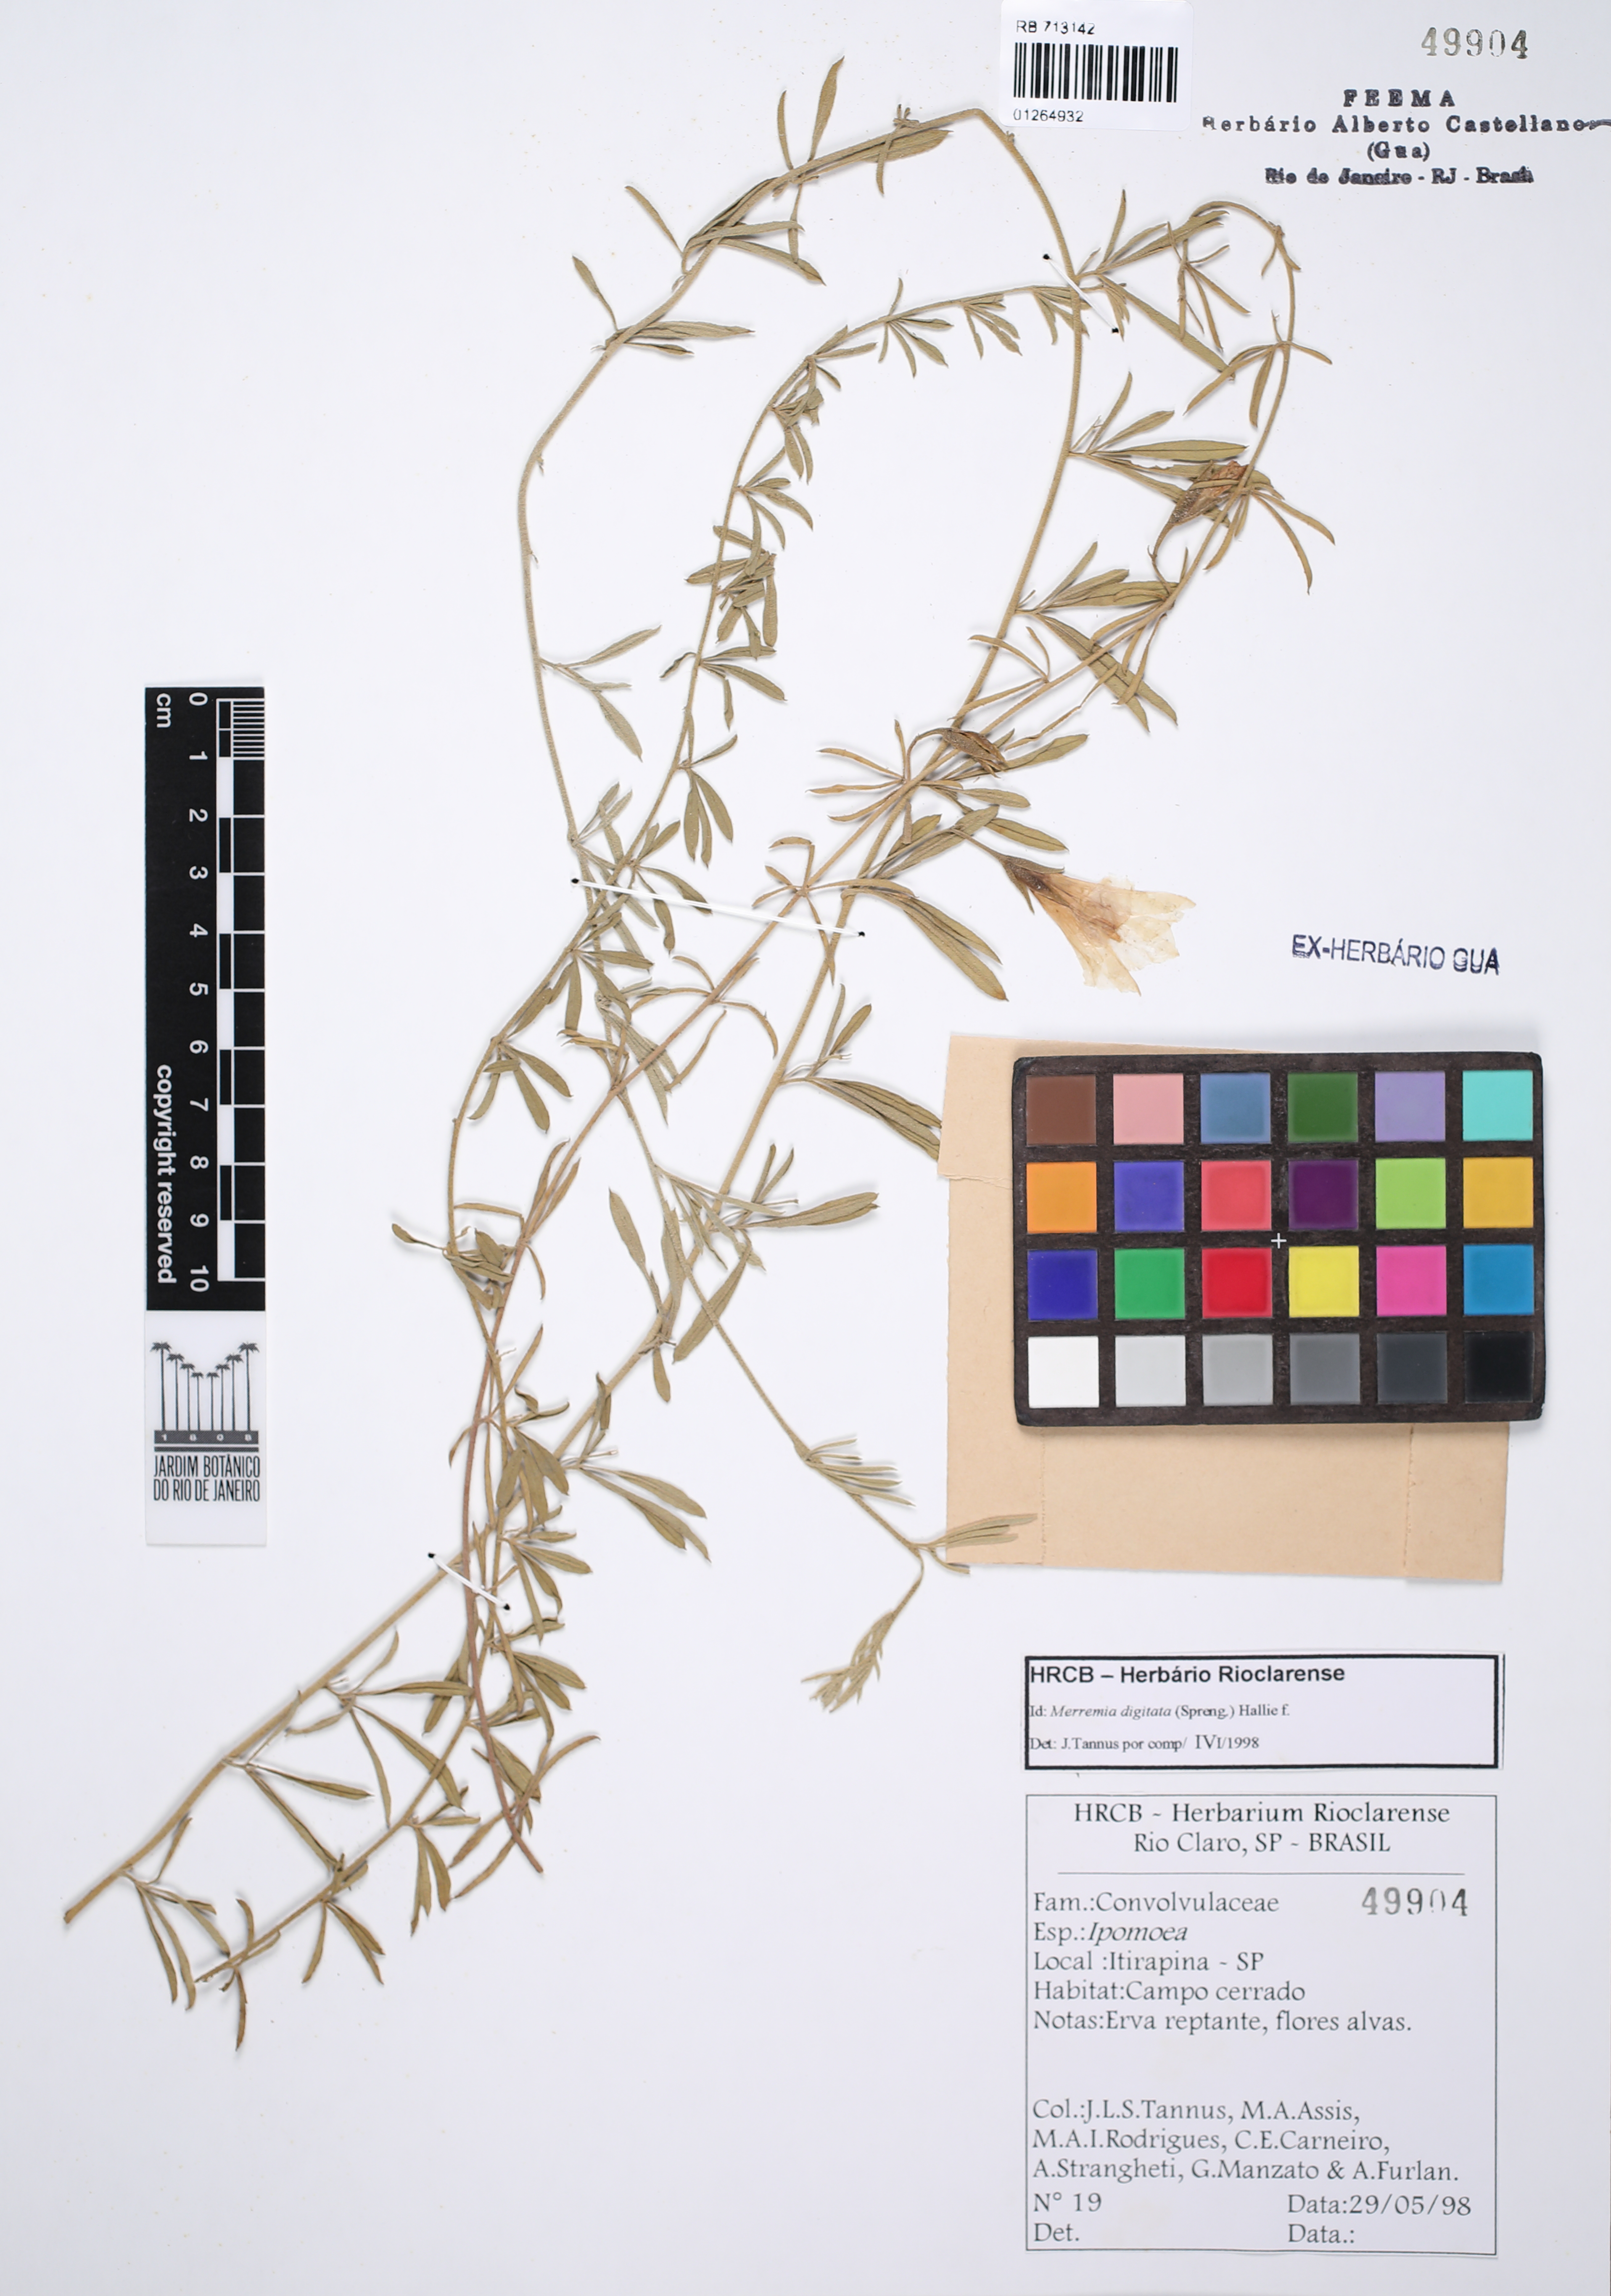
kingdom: Plantae
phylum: Tracheophyta
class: Magnoliopsida
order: Solanales
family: Convolvulaceae
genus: Distimake
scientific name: Distimake digitatus
